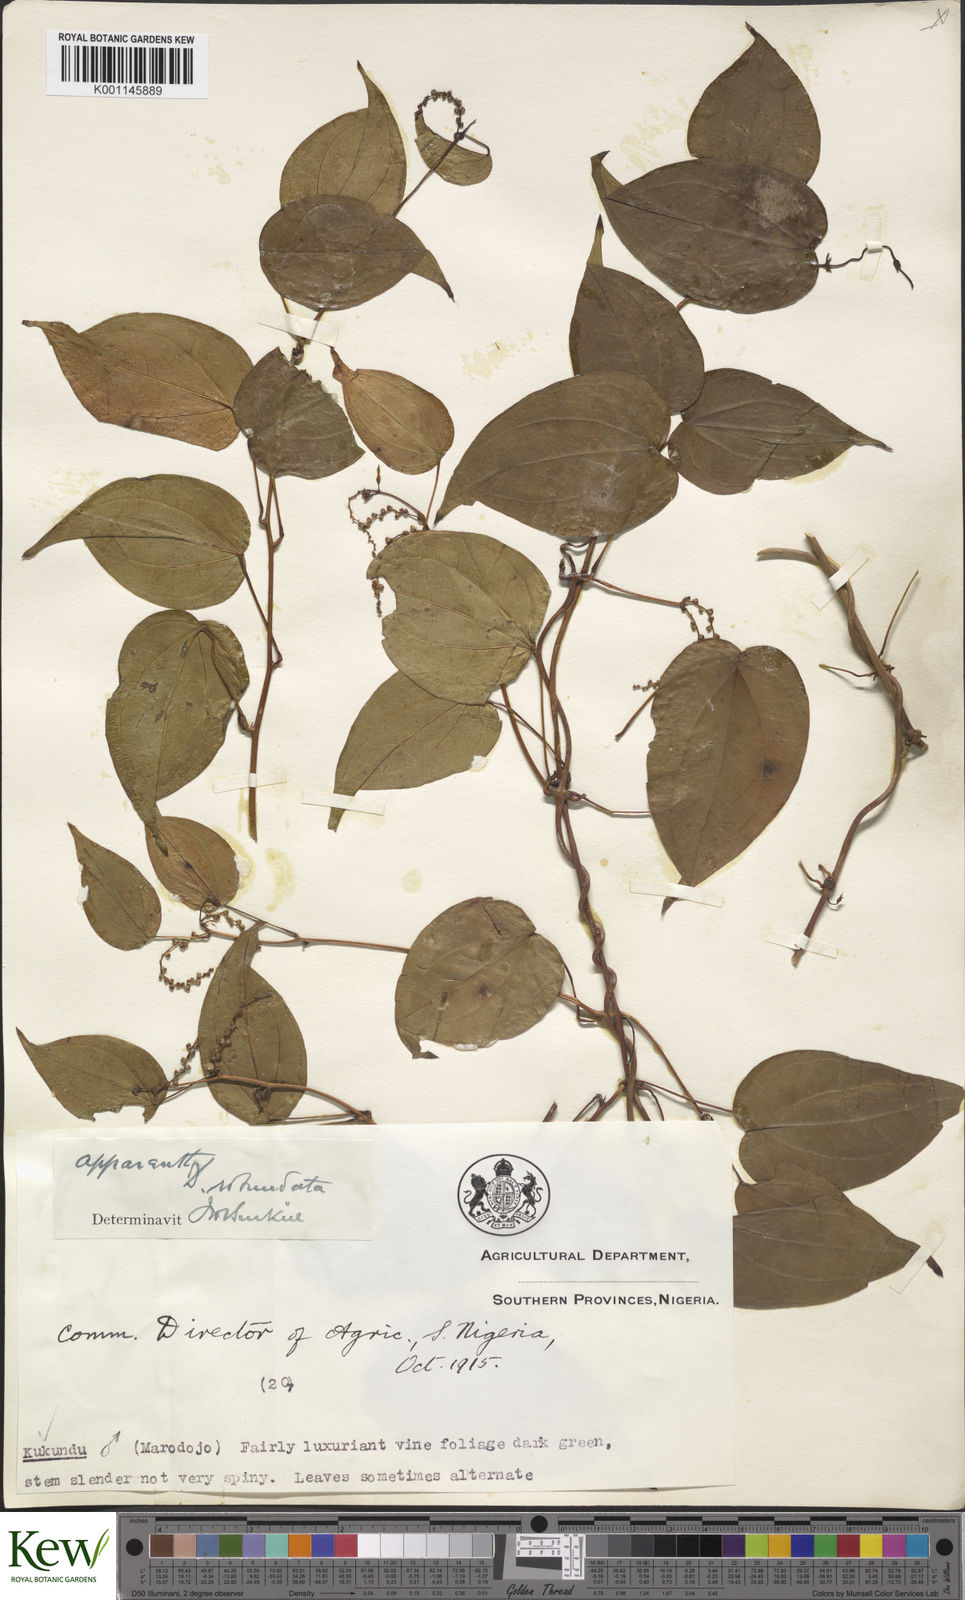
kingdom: Plantae
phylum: Tracheophyta
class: Liliopsida
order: Dioscoreales
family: Dioscoreaceae
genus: Dioscorea
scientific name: Dioscorea cayenensis
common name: Attoto yam
